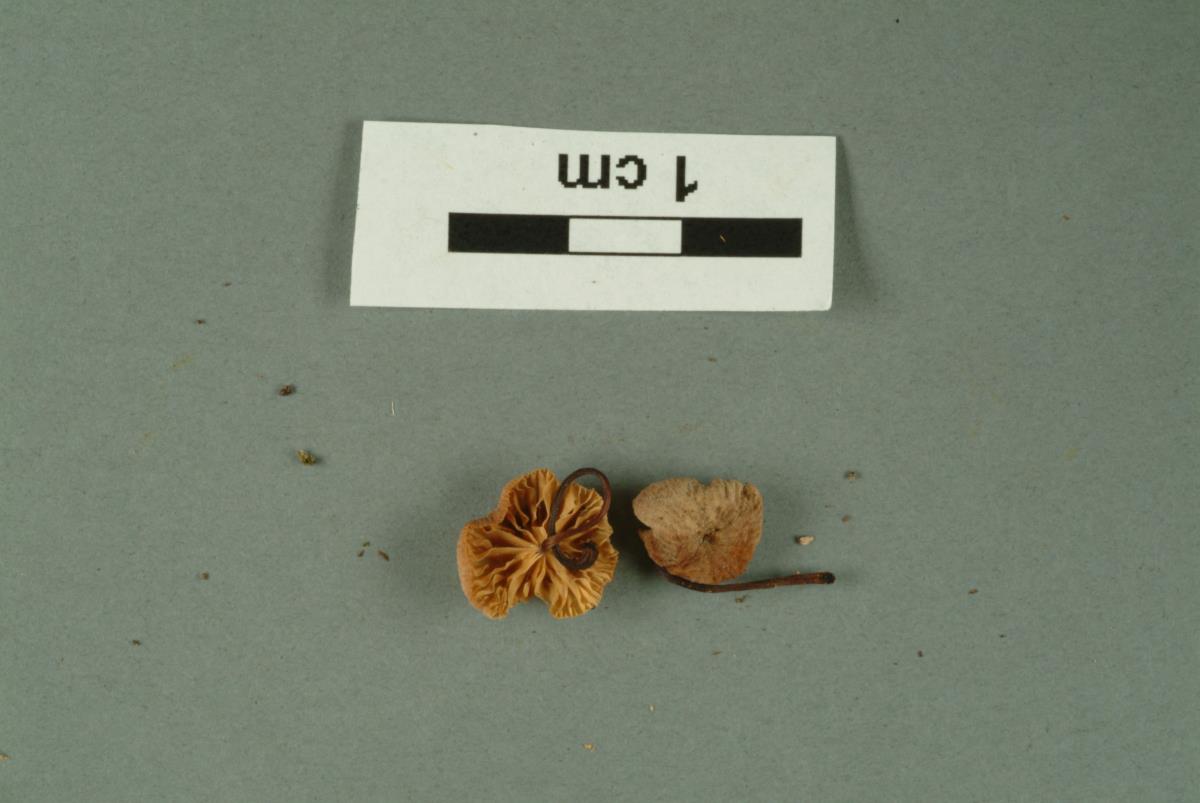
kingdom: Fungi
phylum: Basidiomycota
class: Agaricomycetes
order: Agaricales
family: Marasmiaceae
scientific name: Marasmiaceae
